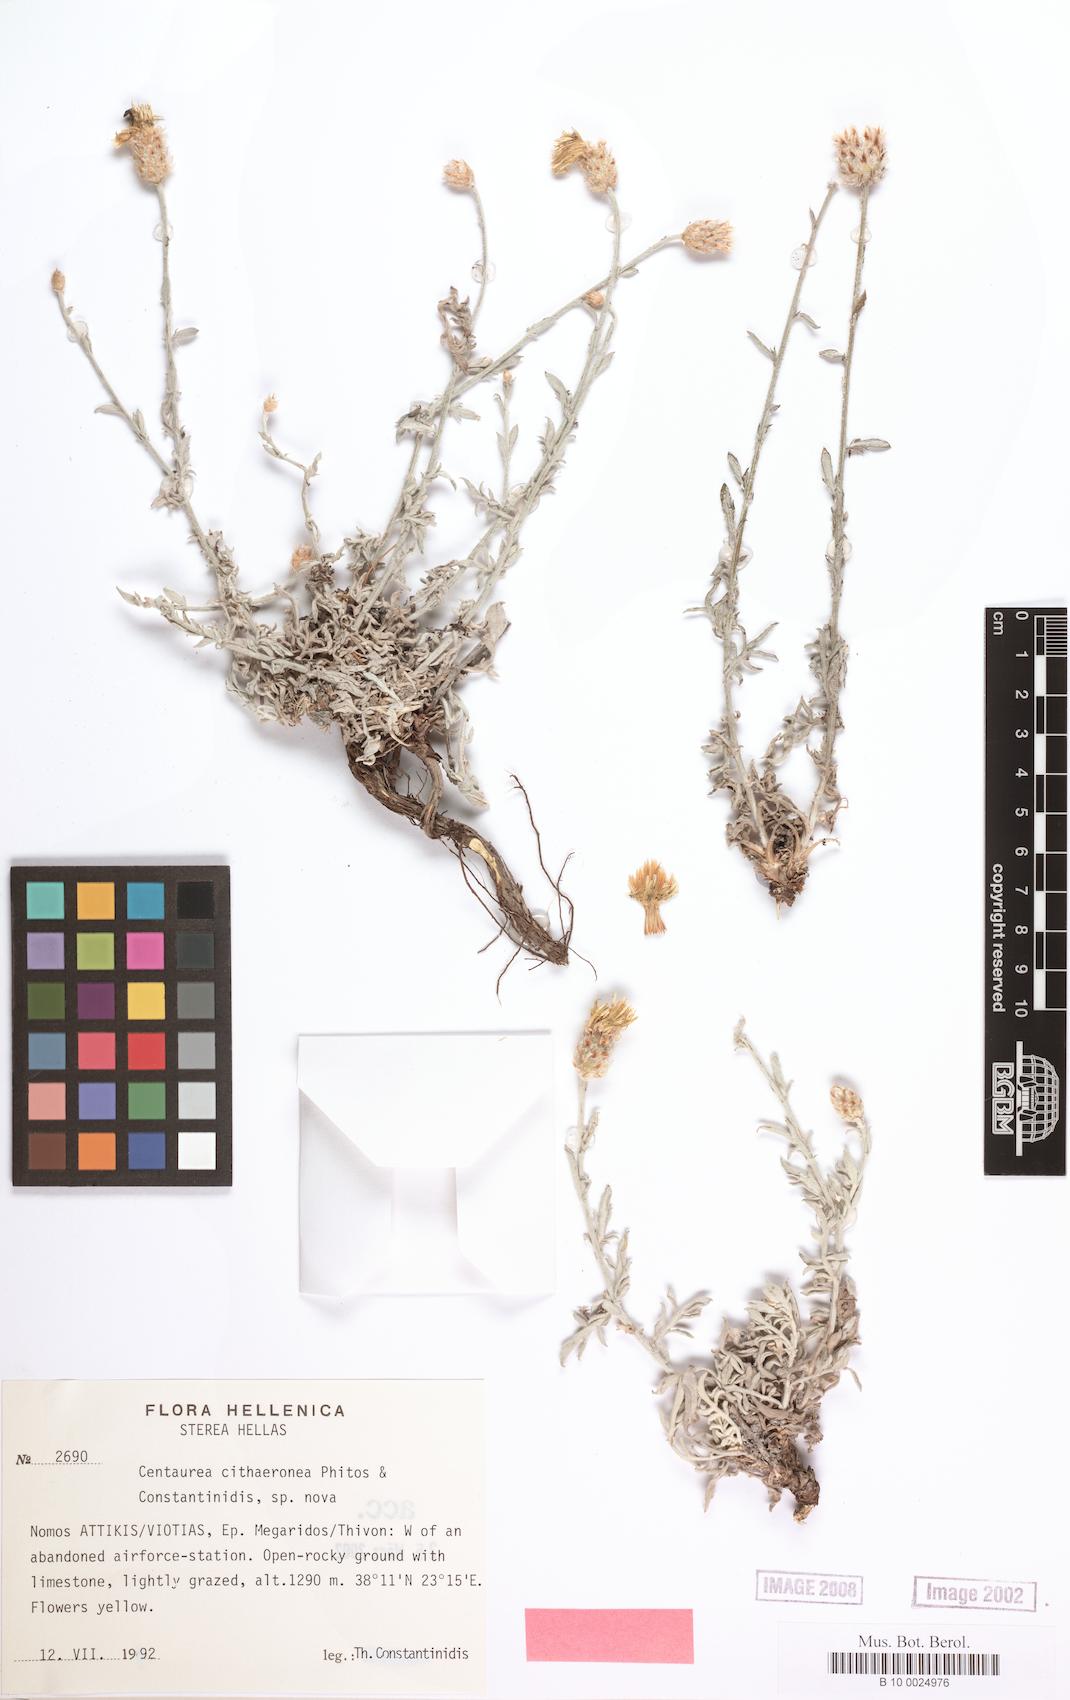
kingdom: Plantae
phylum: Tracheophyta
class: Magnoliopsida
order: Asterales
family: Asteraceae
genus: Centaurea
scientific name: Centaurea cithaeronea
